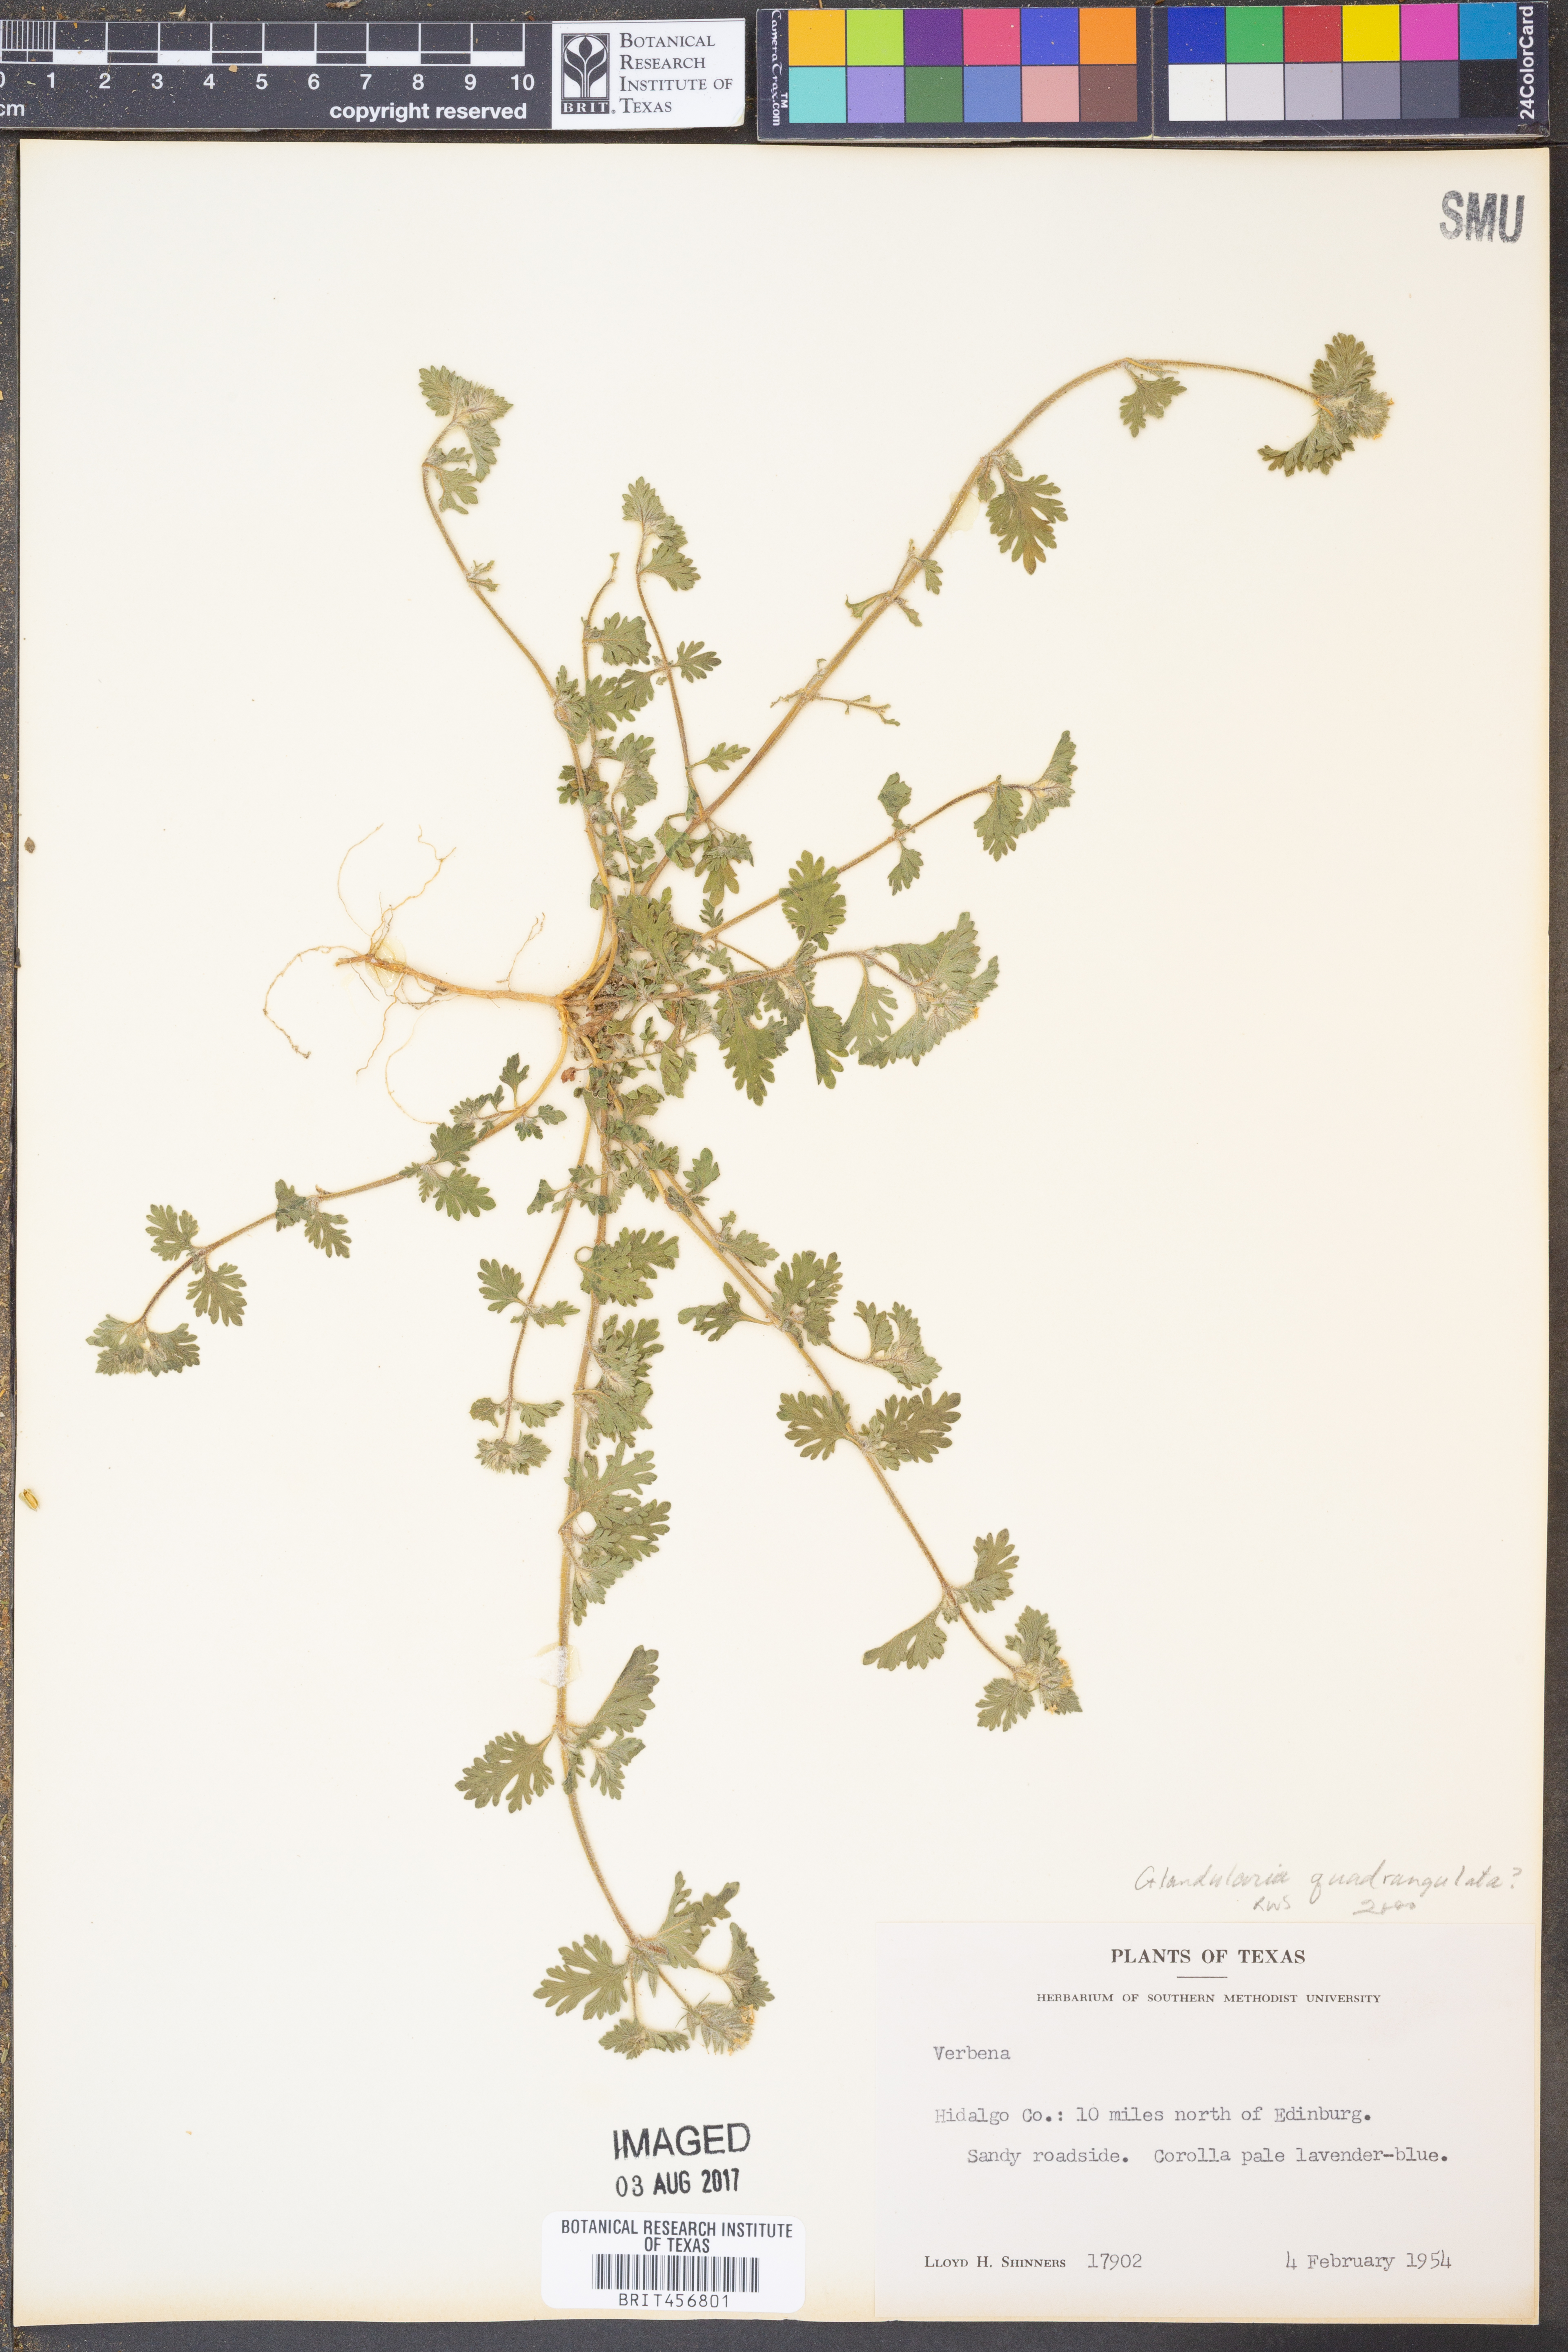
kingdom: Plantae
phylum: Tracheophyta
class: Magnoliopsida
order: Lamiales
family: Verbenaceae
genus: Verbena
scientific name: Verbena
